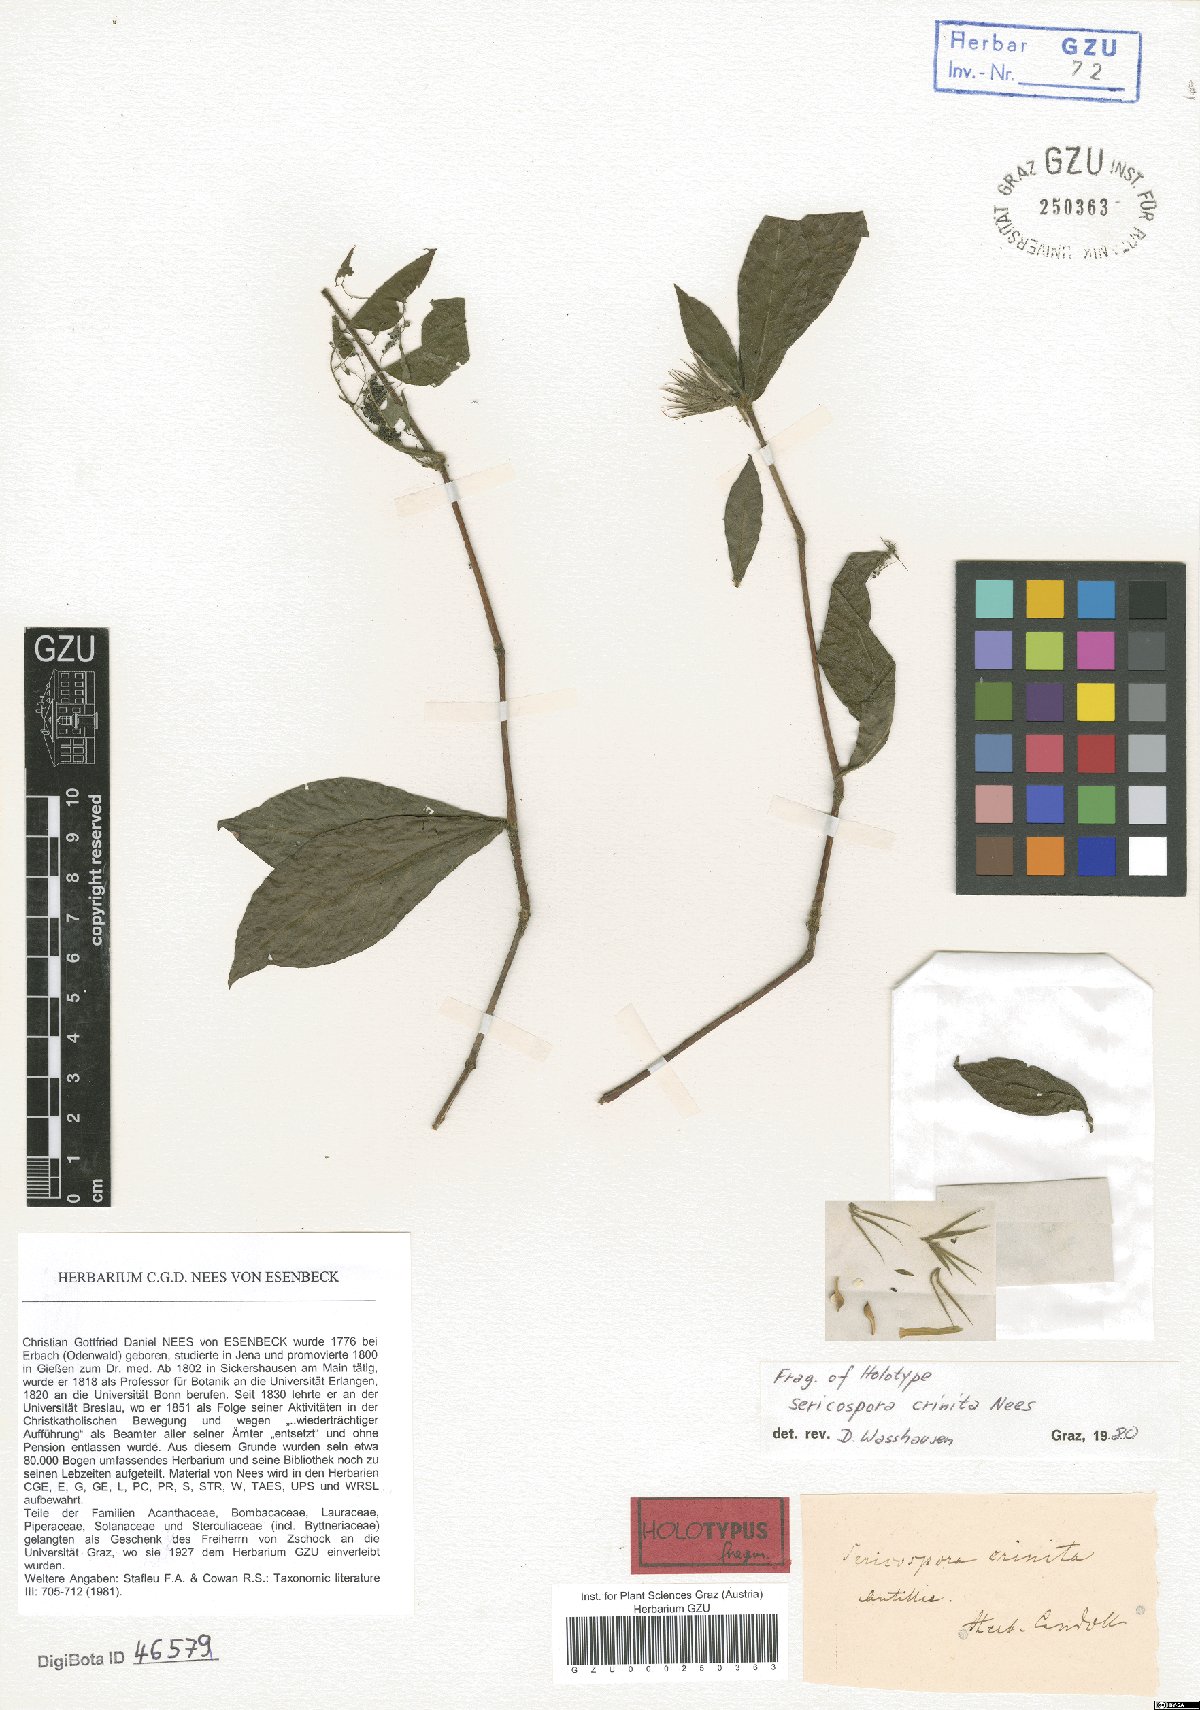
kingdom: Plantae
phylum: Tracheophyta
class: Magnoliopsida
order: Lamiales
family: Acanthaceae
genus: Sericospora
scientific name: Sericospora crinita
